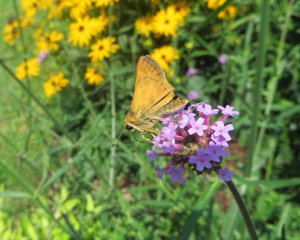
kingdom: Animalia
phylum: Arthropoda
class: Insecta
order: Lepidoptera
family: Hesperiidae
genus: Atalopedes
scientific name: Atalopedes campestris
